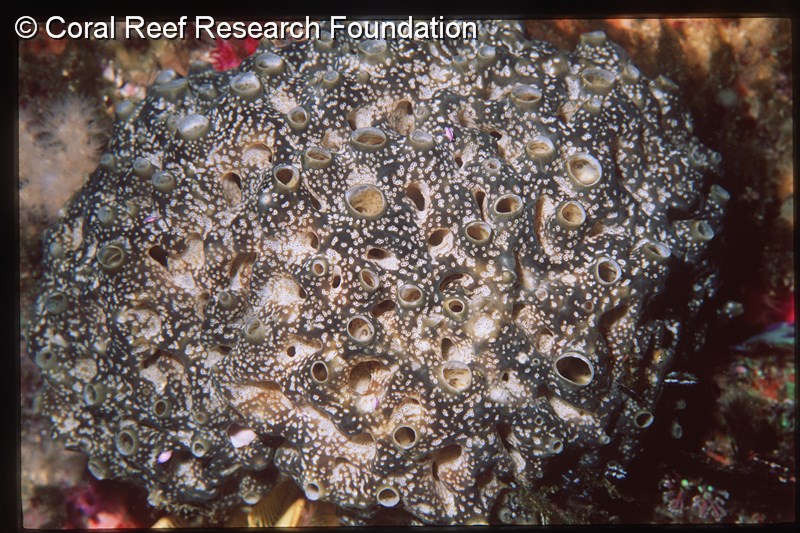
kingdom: Animalia
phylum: Chordata
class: Ascidiacea
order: Aplousobranchia
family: Didemnidae
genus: Trididemnum
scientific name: Trididemnum cerebriforme
